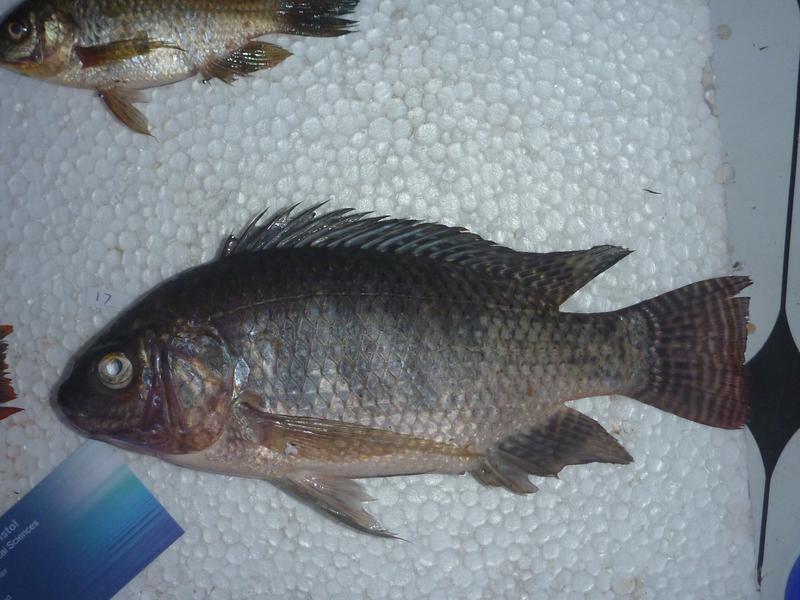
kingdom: Animalia
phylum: Chordata
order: Perciformes
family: Cichlidae
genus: Oreochromis
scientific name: Oreochromis niloticus
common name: Nile tilapia
